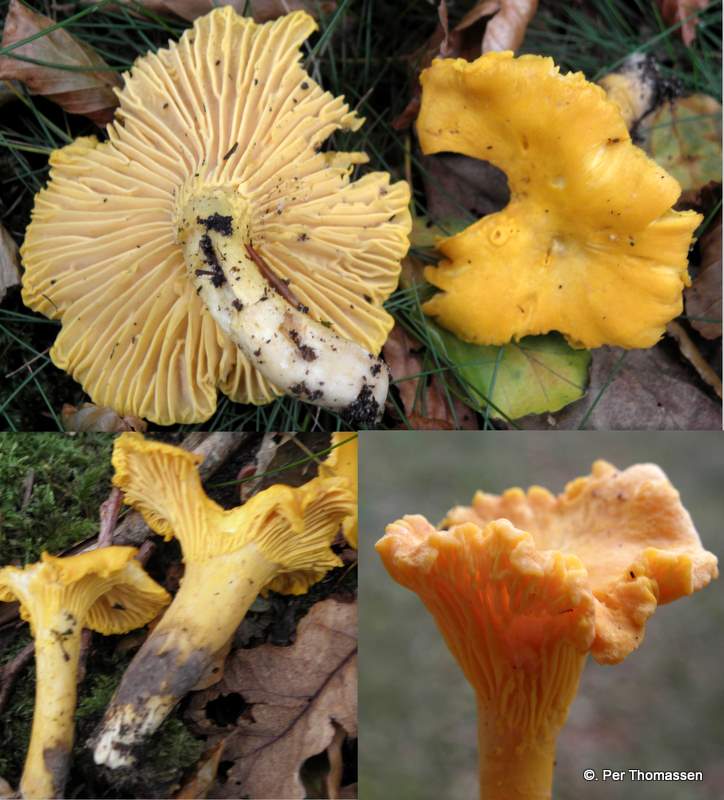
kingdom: Fungi
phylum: Basidiomycota
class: Agaricomycetes
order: Cantharellales
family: Hydnaceae
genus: Cantharellus
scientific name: Cantharellus cibarius
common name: almindelig kantarel
